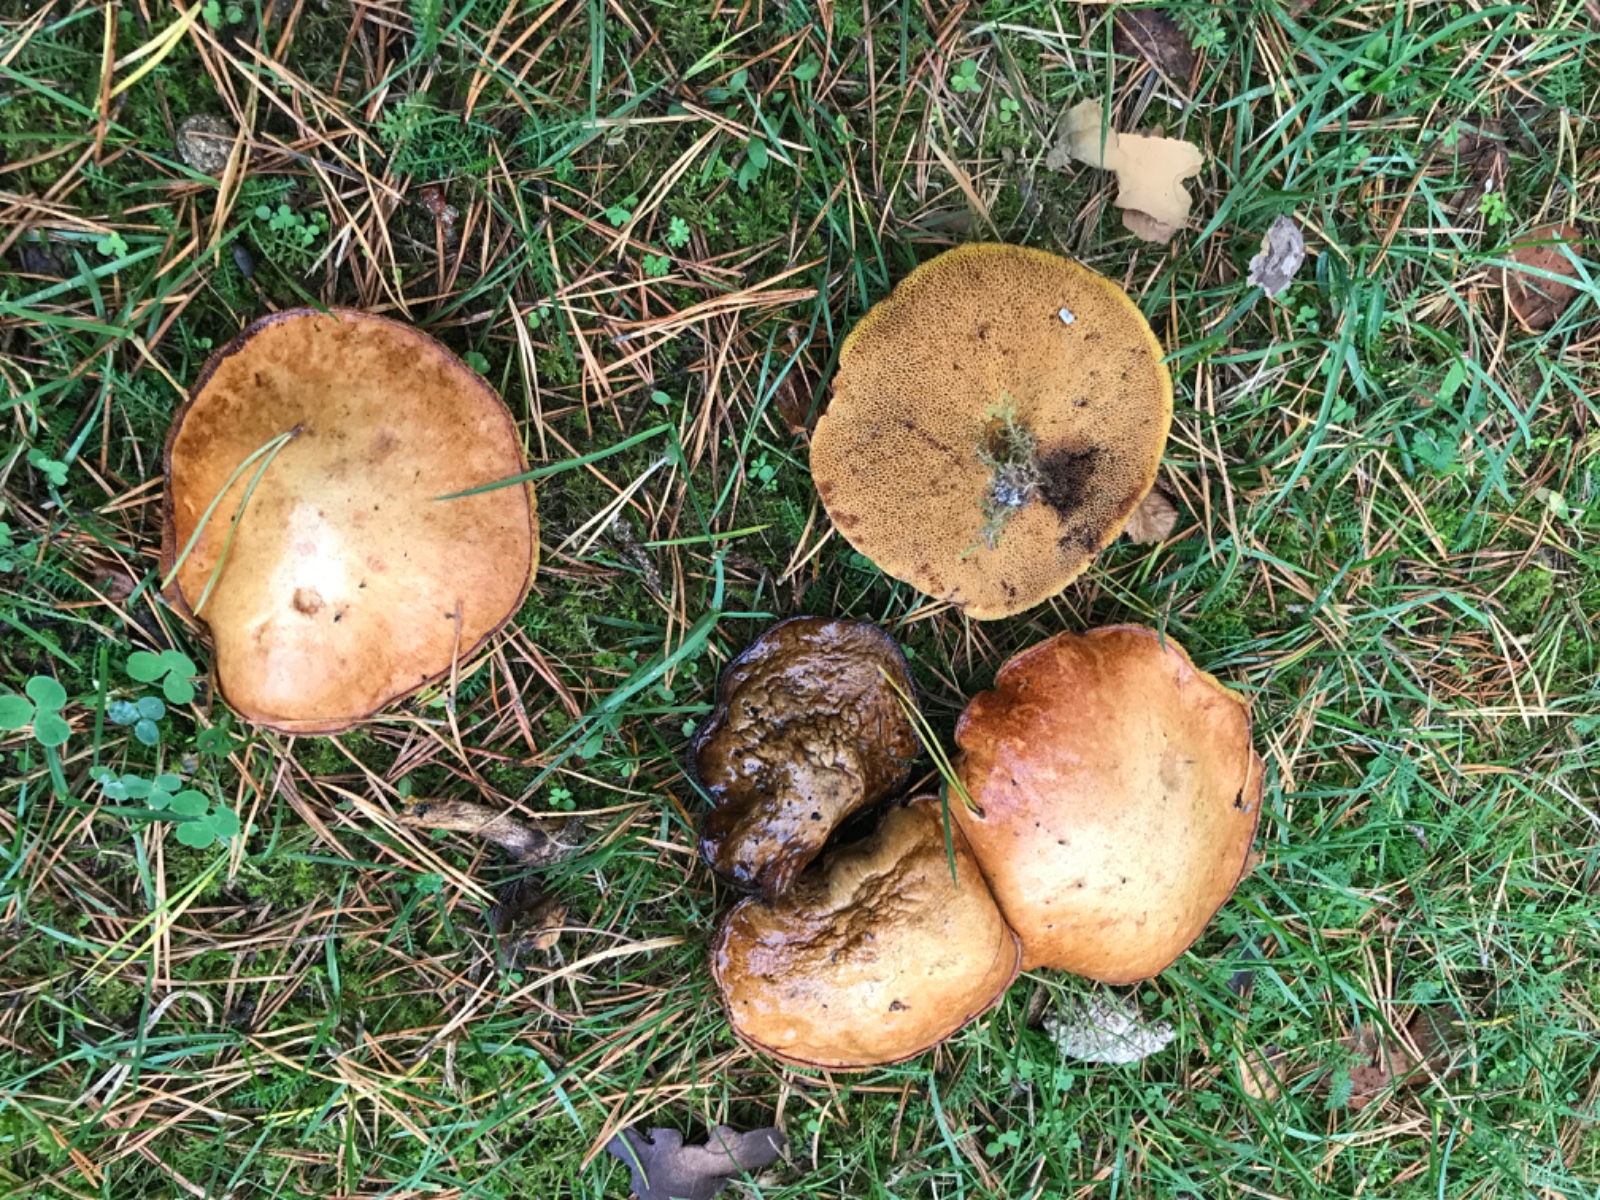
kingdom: Fungi
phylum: Basidiomycota
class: Agaricomycetes
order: Boletales
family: Suillaceae
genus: Suillus
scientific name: Suillus bovinus
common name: grovporet slimrørhat
